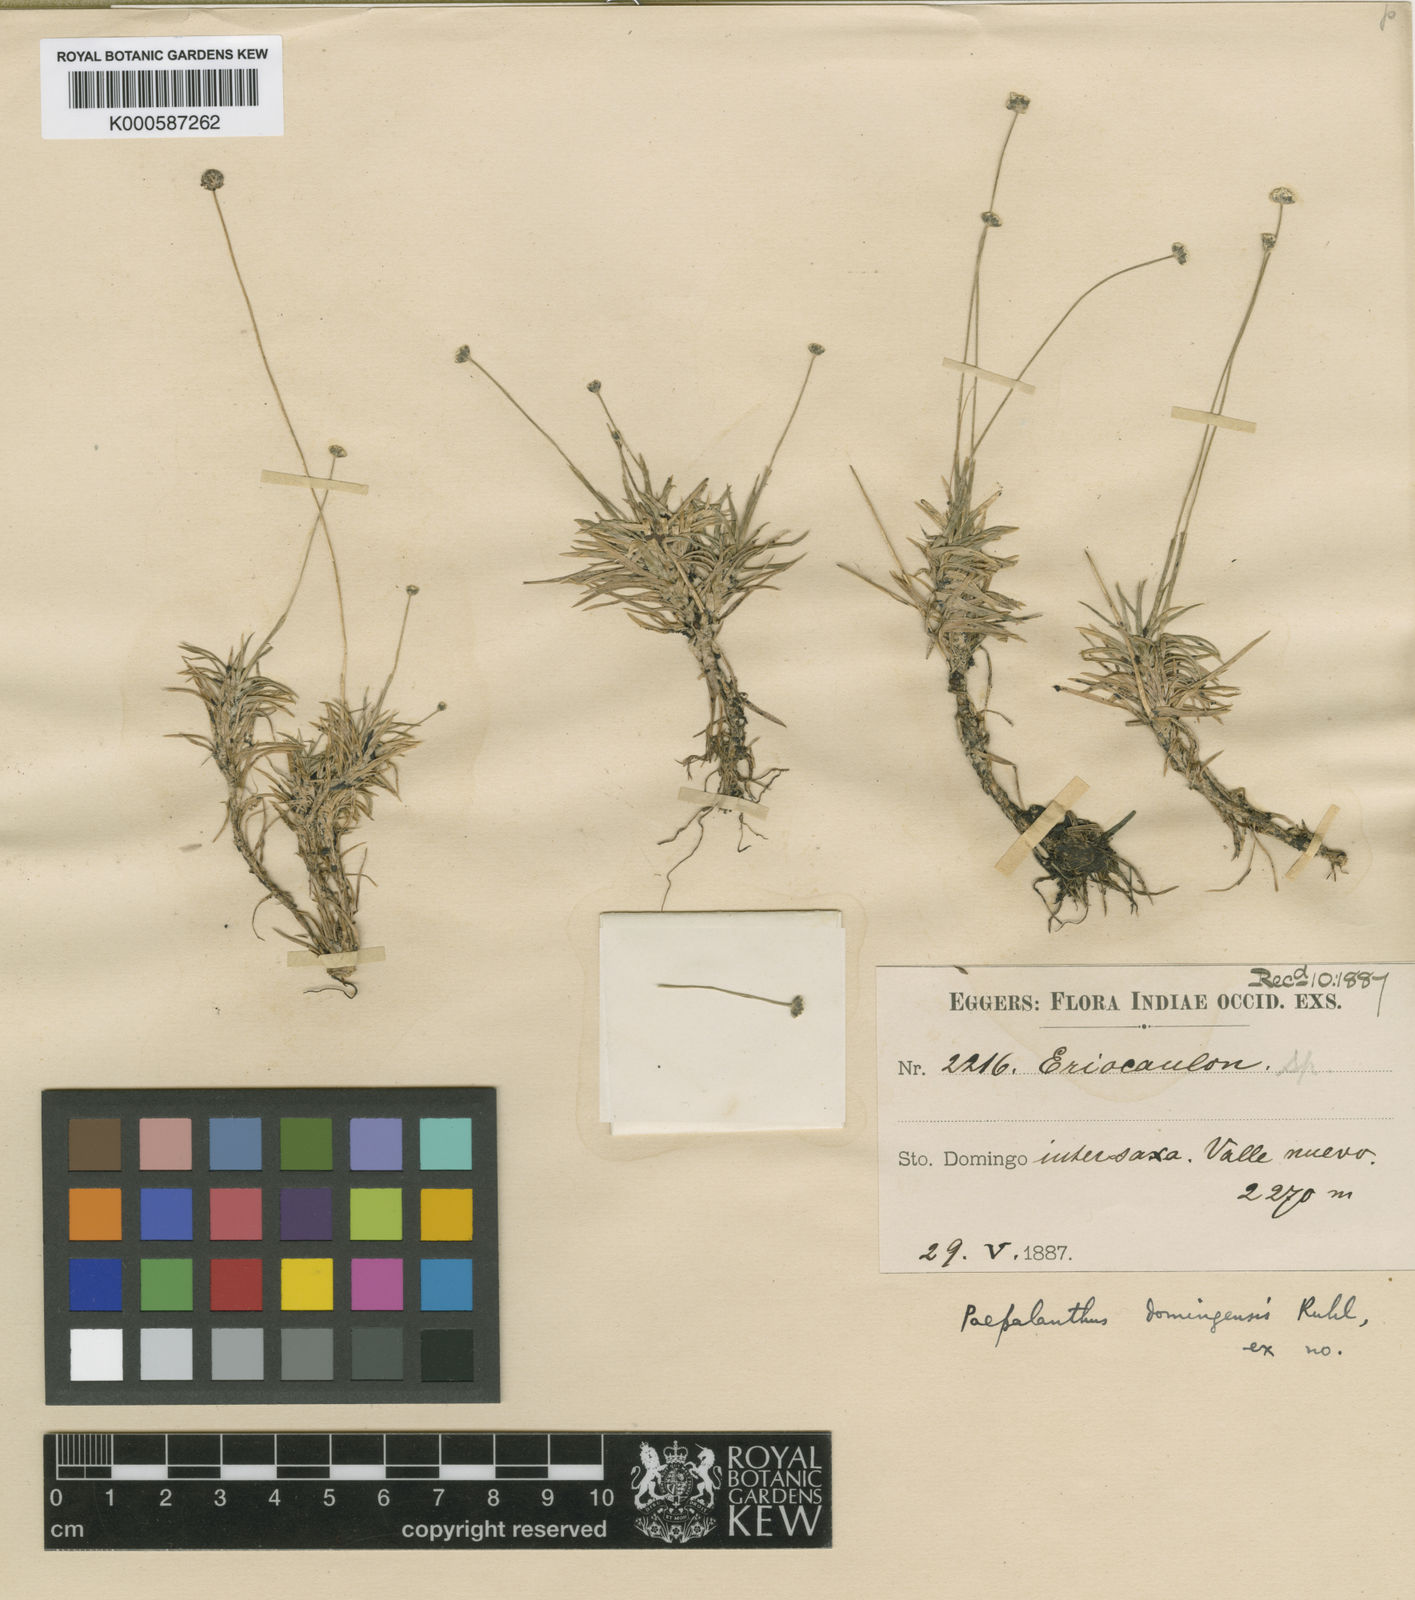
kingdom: Plantae
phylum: Tracheophyta
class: Liliopsida
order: Poales
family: Eriocaulaceae
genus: Paepalanthus
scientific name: Paepalanthus repens
